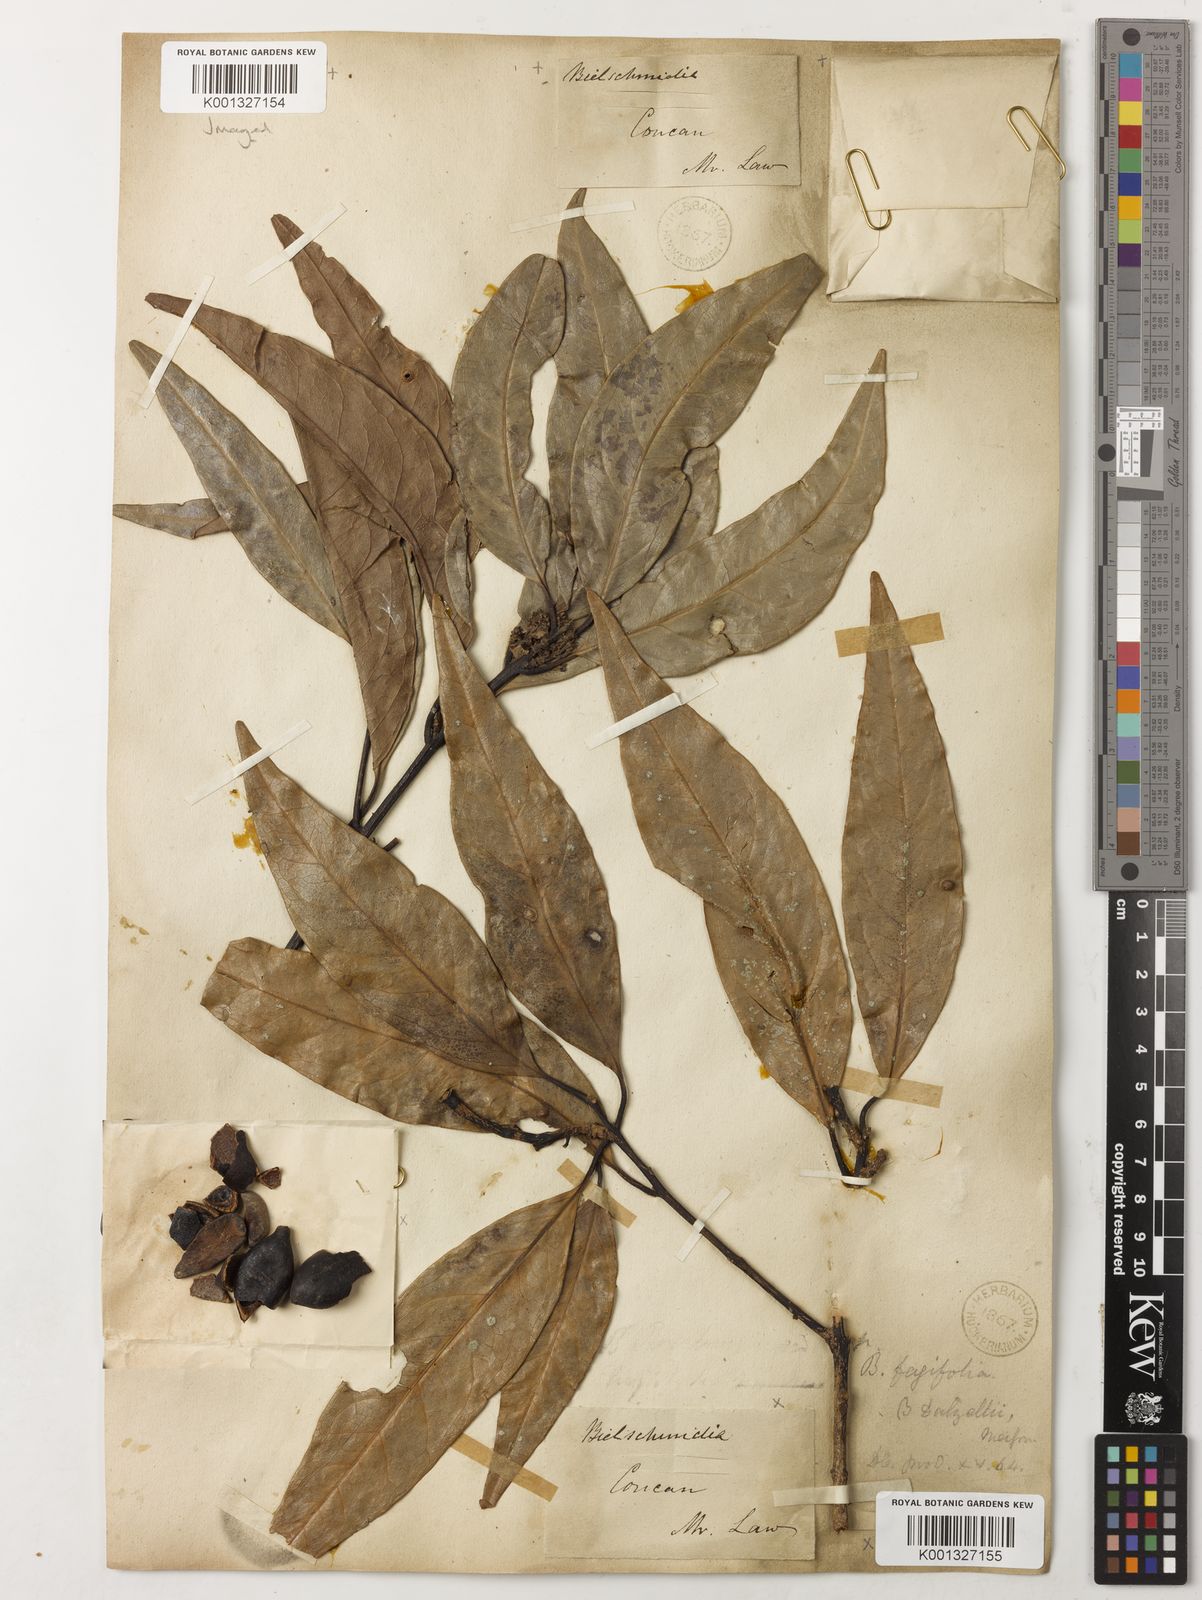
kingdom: Plantae
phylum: Tracheophyta
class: Magnoliopsida
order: Laurales
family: Lauraceae
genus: Beilschmiedia
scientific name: Beilschmiedia dalzellii
